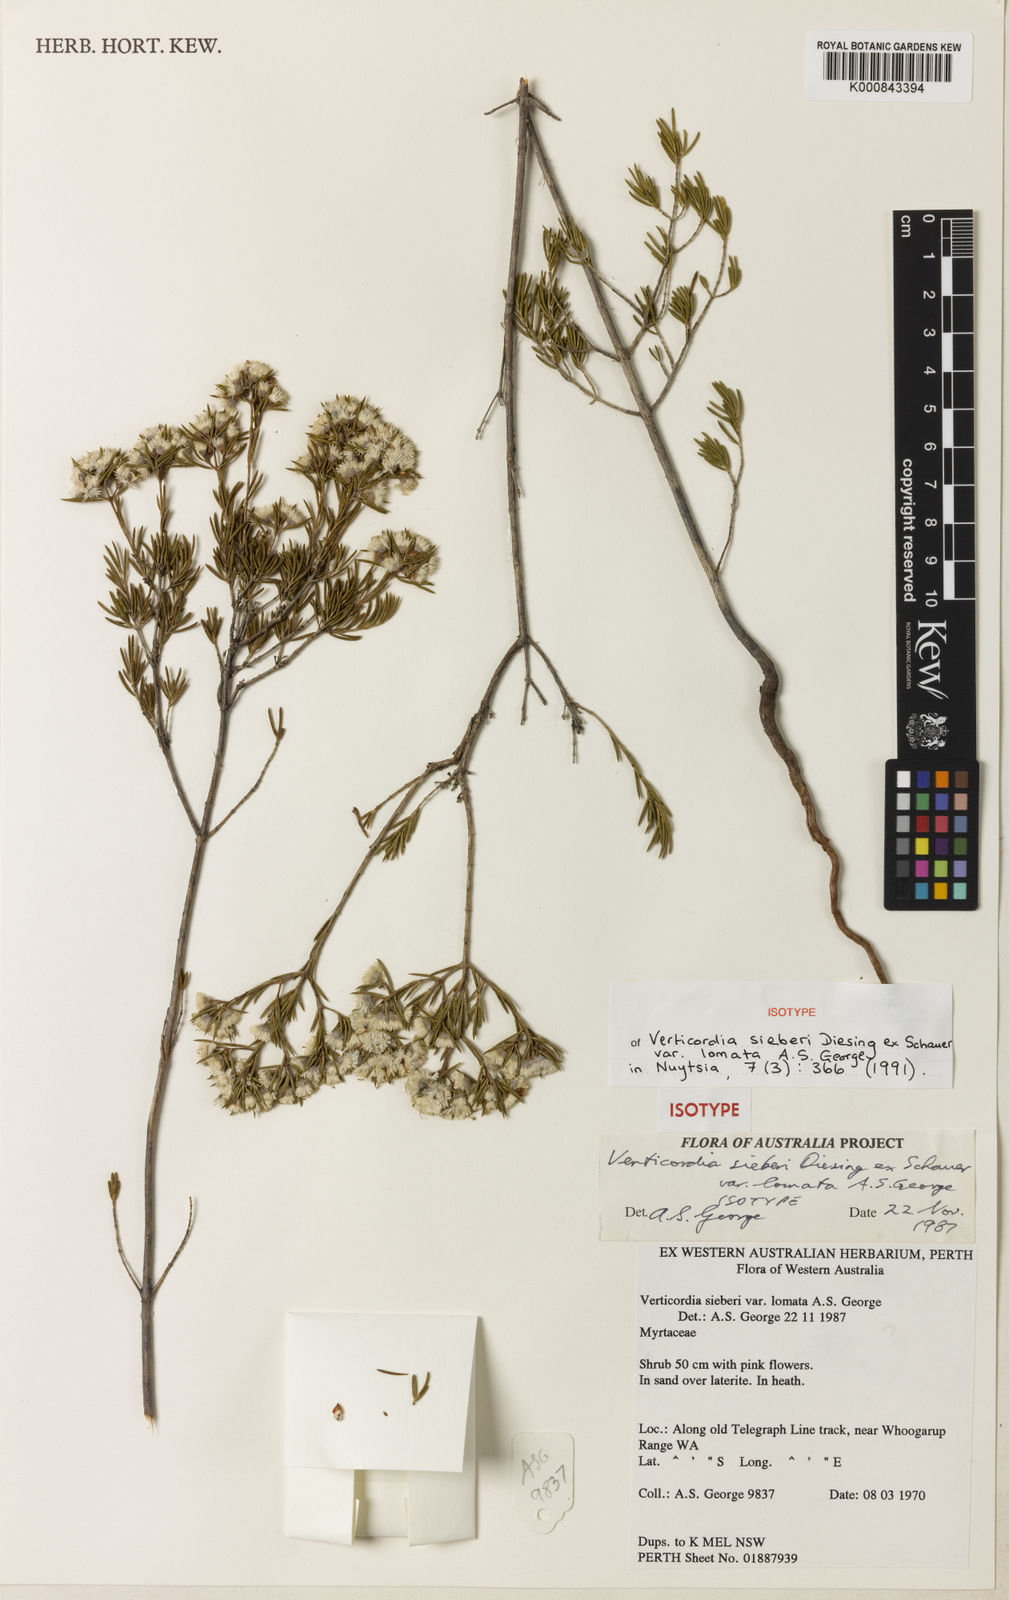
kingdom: Plantae
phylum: Tracheophyta
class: Magnoliopsida
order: Myrtales
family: Myrtaceae
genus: Verticordia
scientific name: Verticordia sieberi
